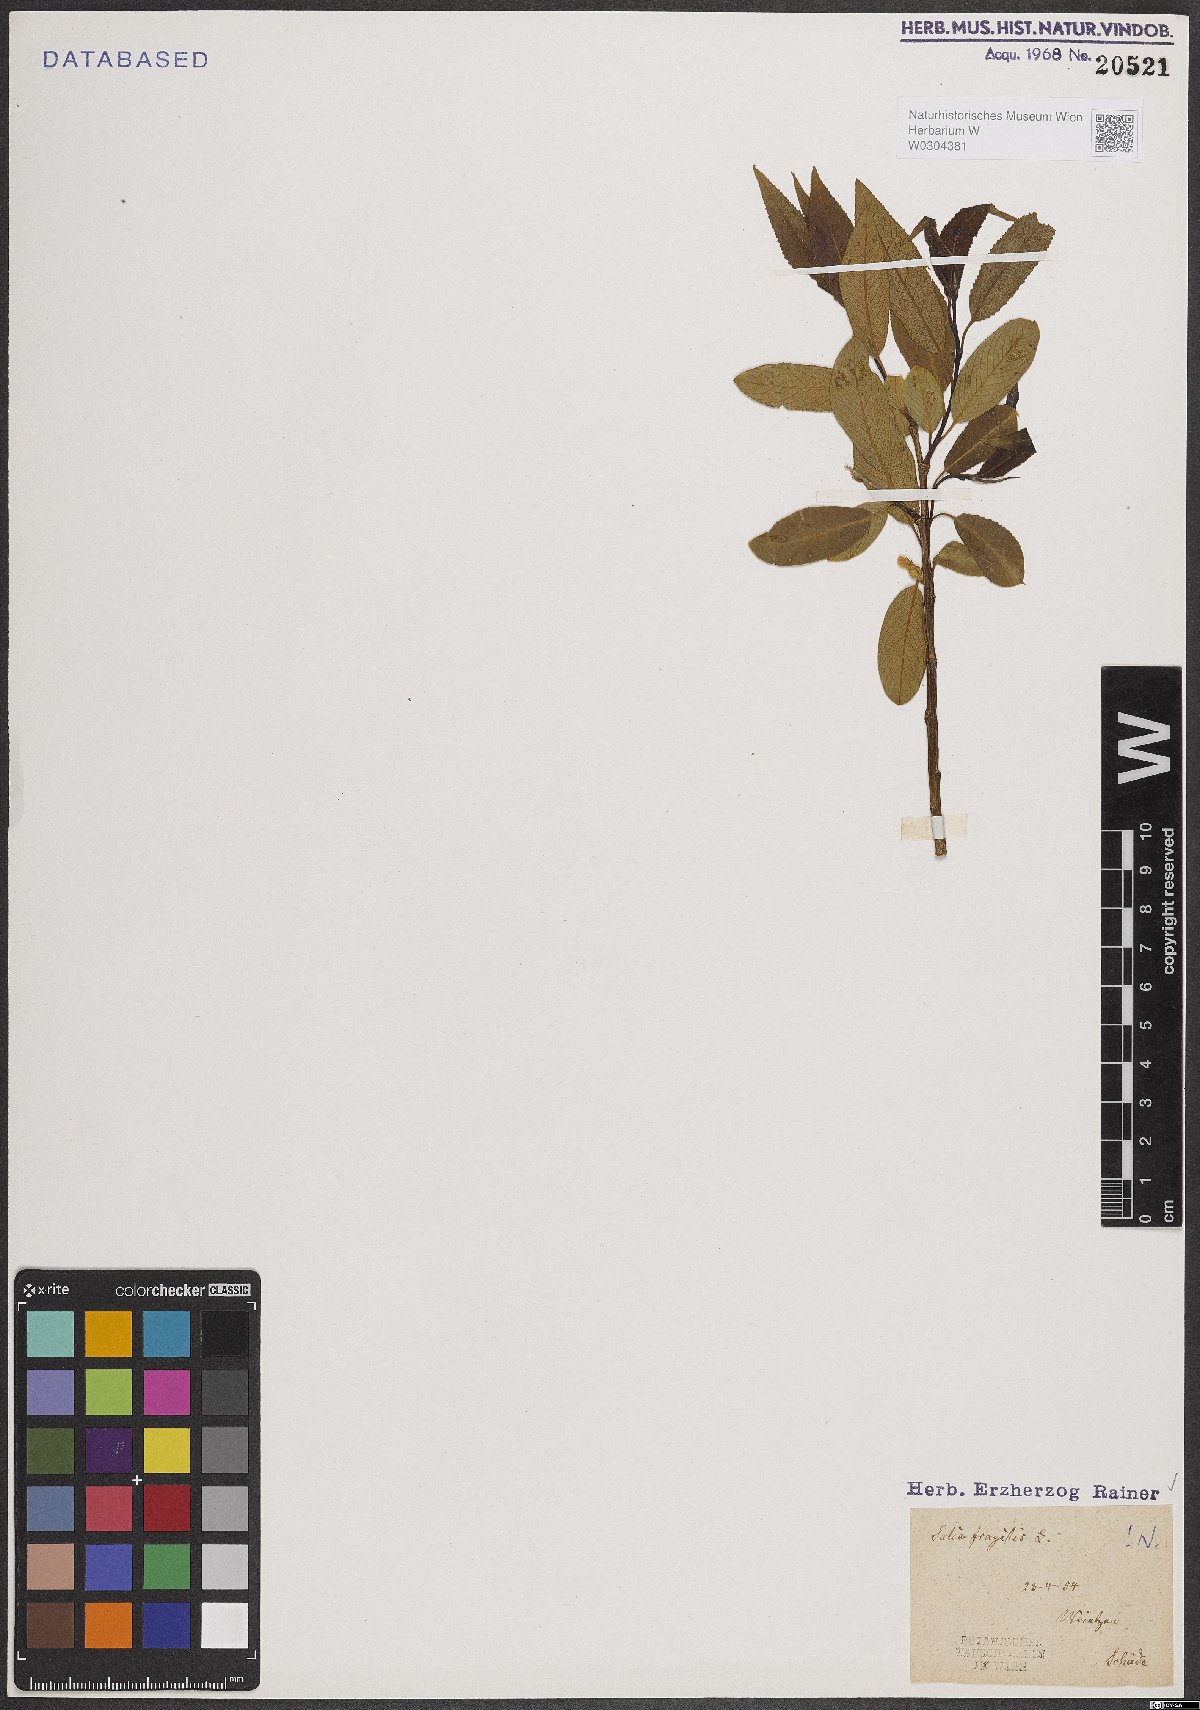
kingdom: Plantae
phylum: Tracheophyta
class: Magnoliopsida
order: Malpighiales
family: Salicaceae
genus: Salix
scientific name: Salix fragilis
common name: Crack willow
